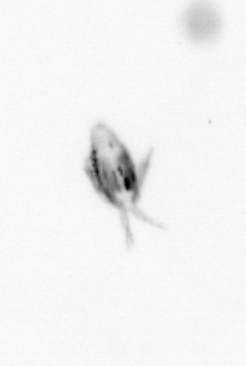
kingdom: Animalia
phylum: Arthropoda
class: Copepoda
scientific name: Copepoda
